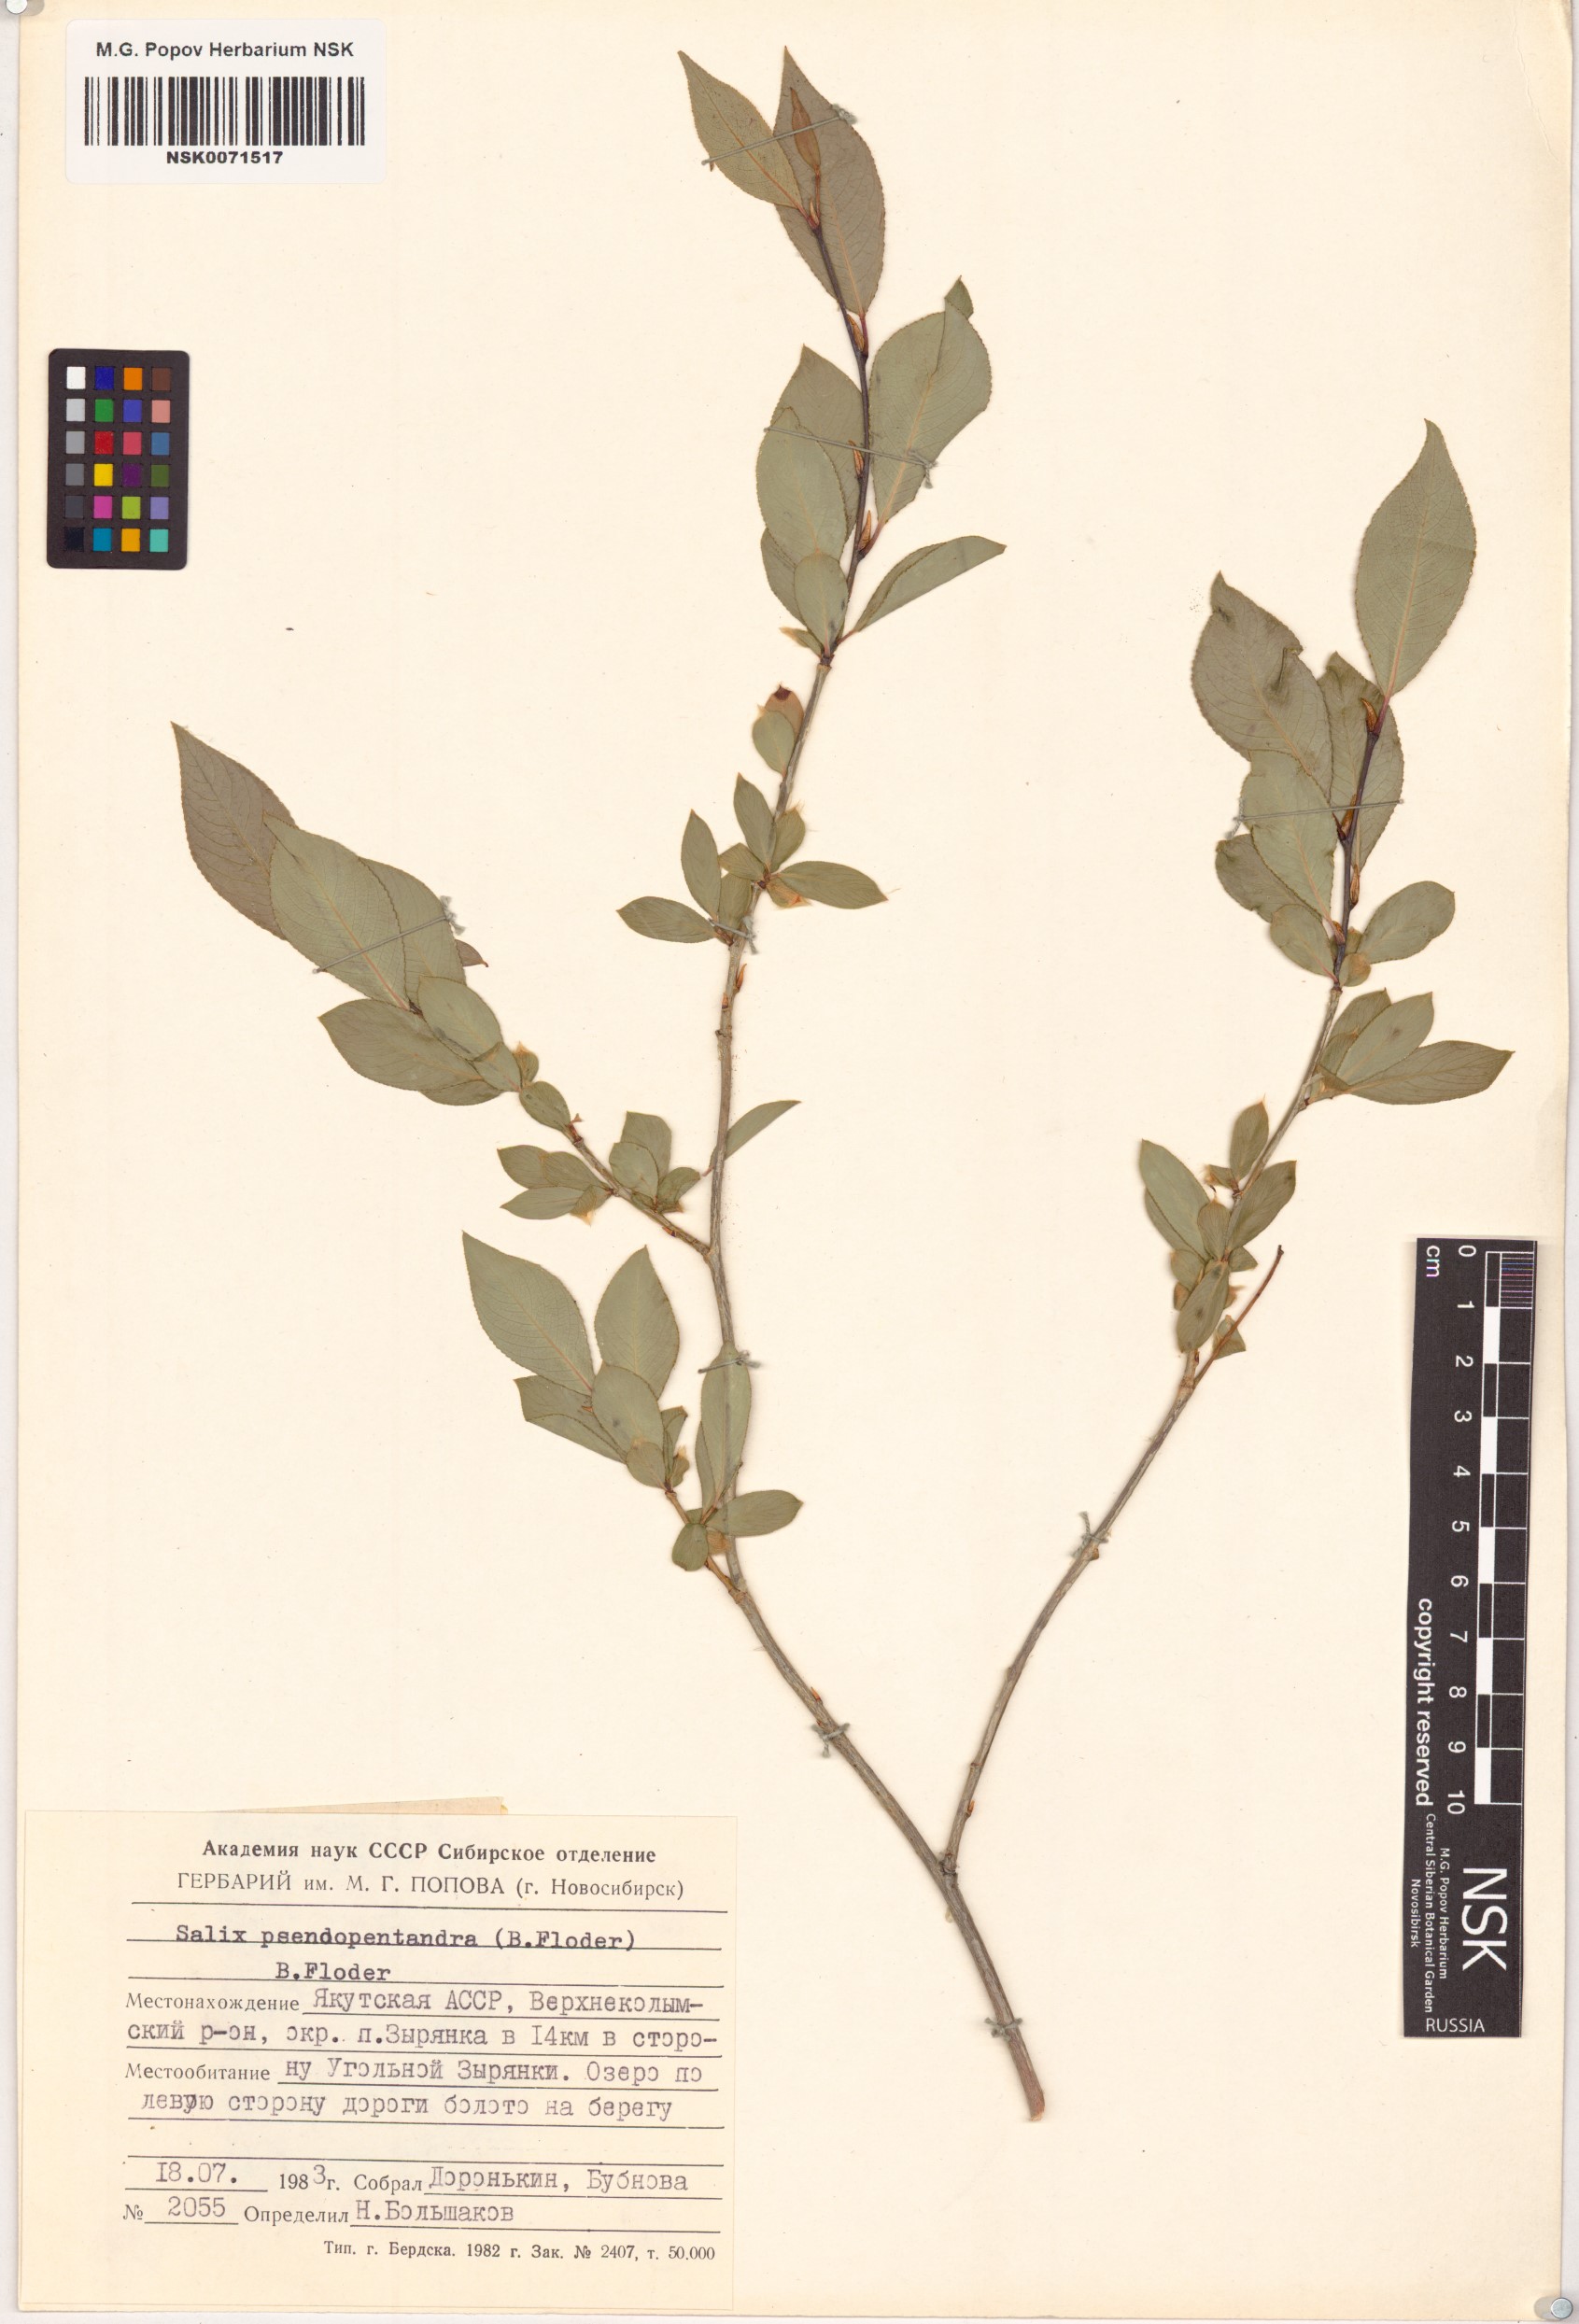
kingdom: Plantae
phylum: Tracheophyta
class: Magnoliopsida
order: Malpighiales
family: Salicaceae
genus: Salix
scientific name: Salix pseudopentandra
